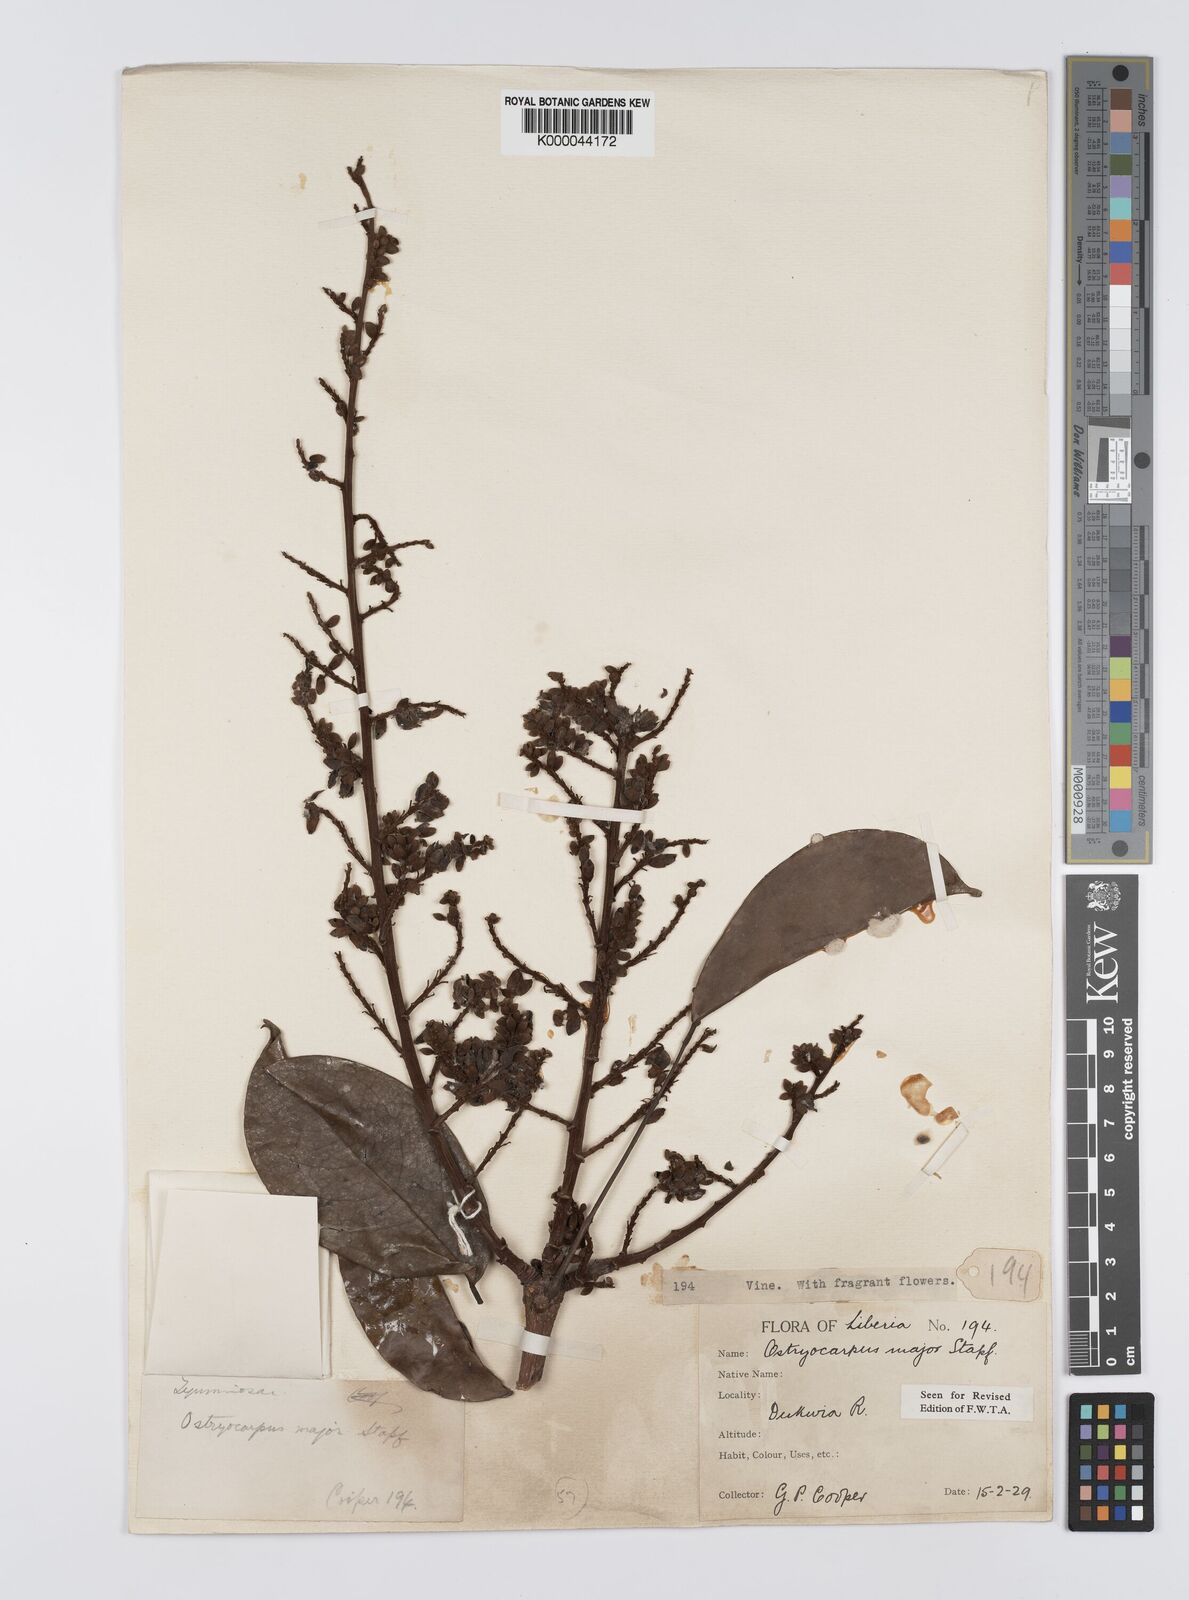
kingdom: Plantae
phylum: Tracheophyta
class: Magnoliopsida
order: Fabales
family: Fabaceae
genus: Aganope
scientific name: Aganope gabonica
